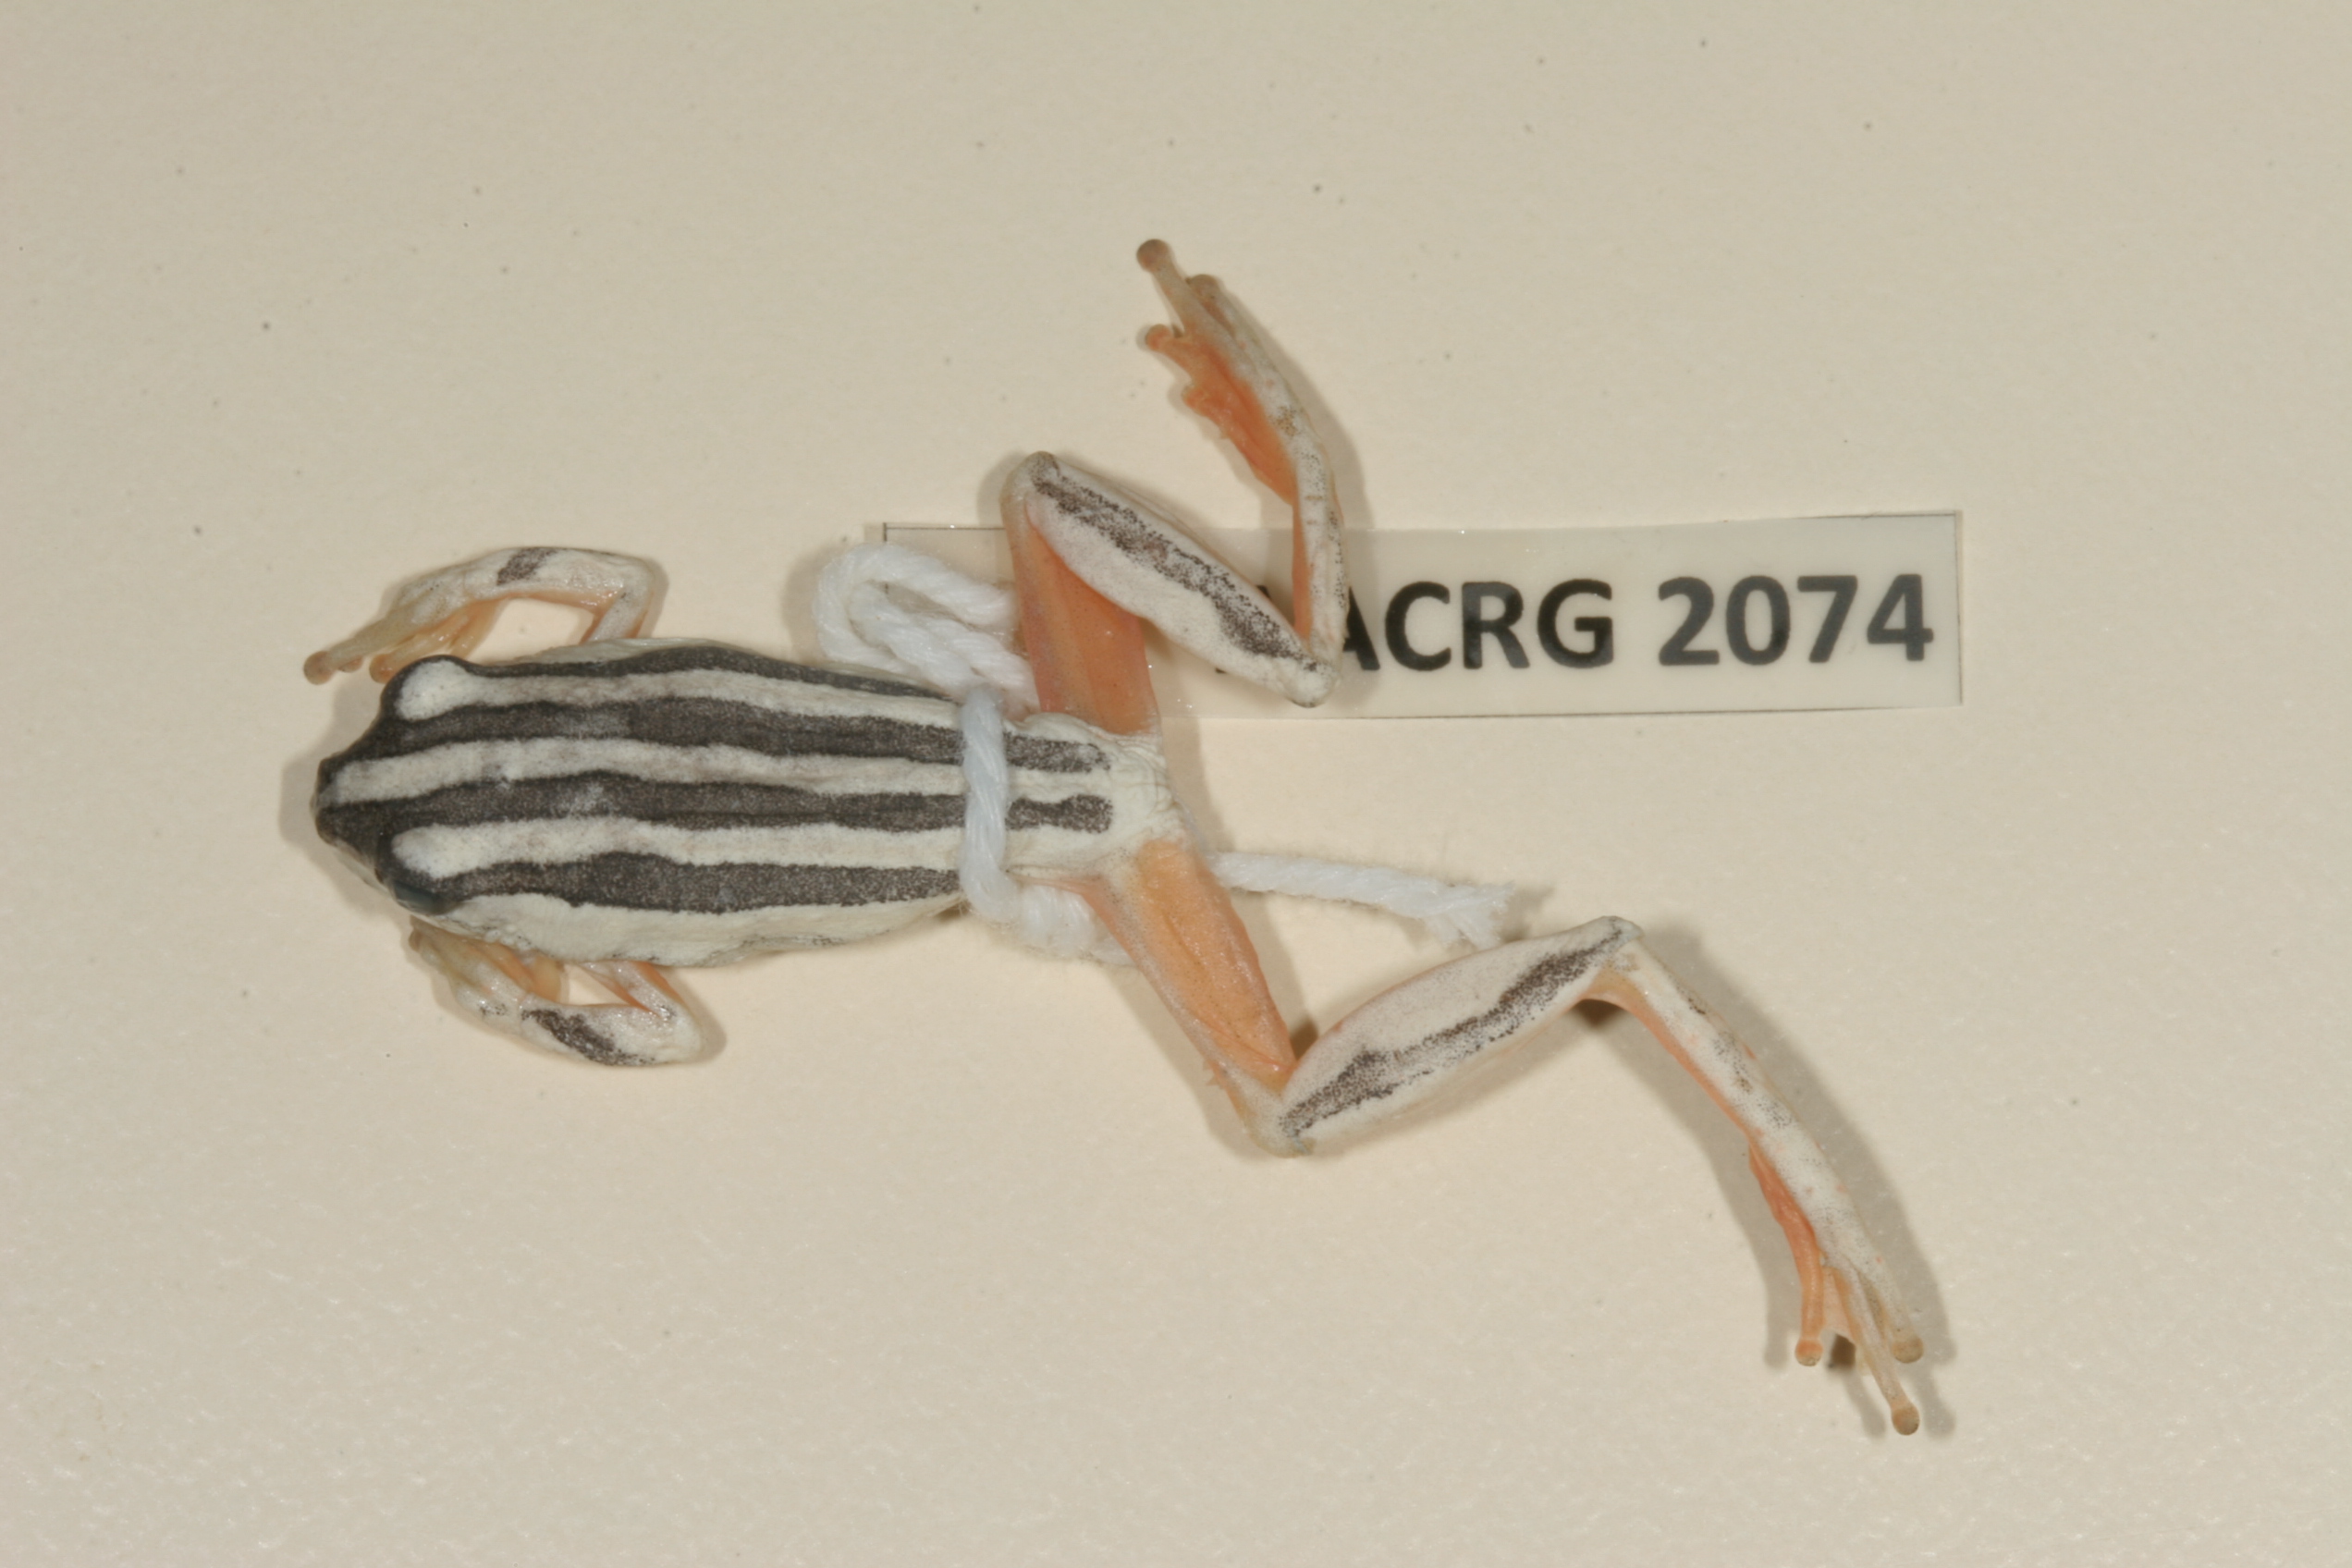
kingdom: Animalia
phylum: Chordata
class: Amphibia
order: Anura
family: Hyperoliidae
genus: Hyperolius
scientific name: Hyperolius marmoratus
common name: Painted reed frog
